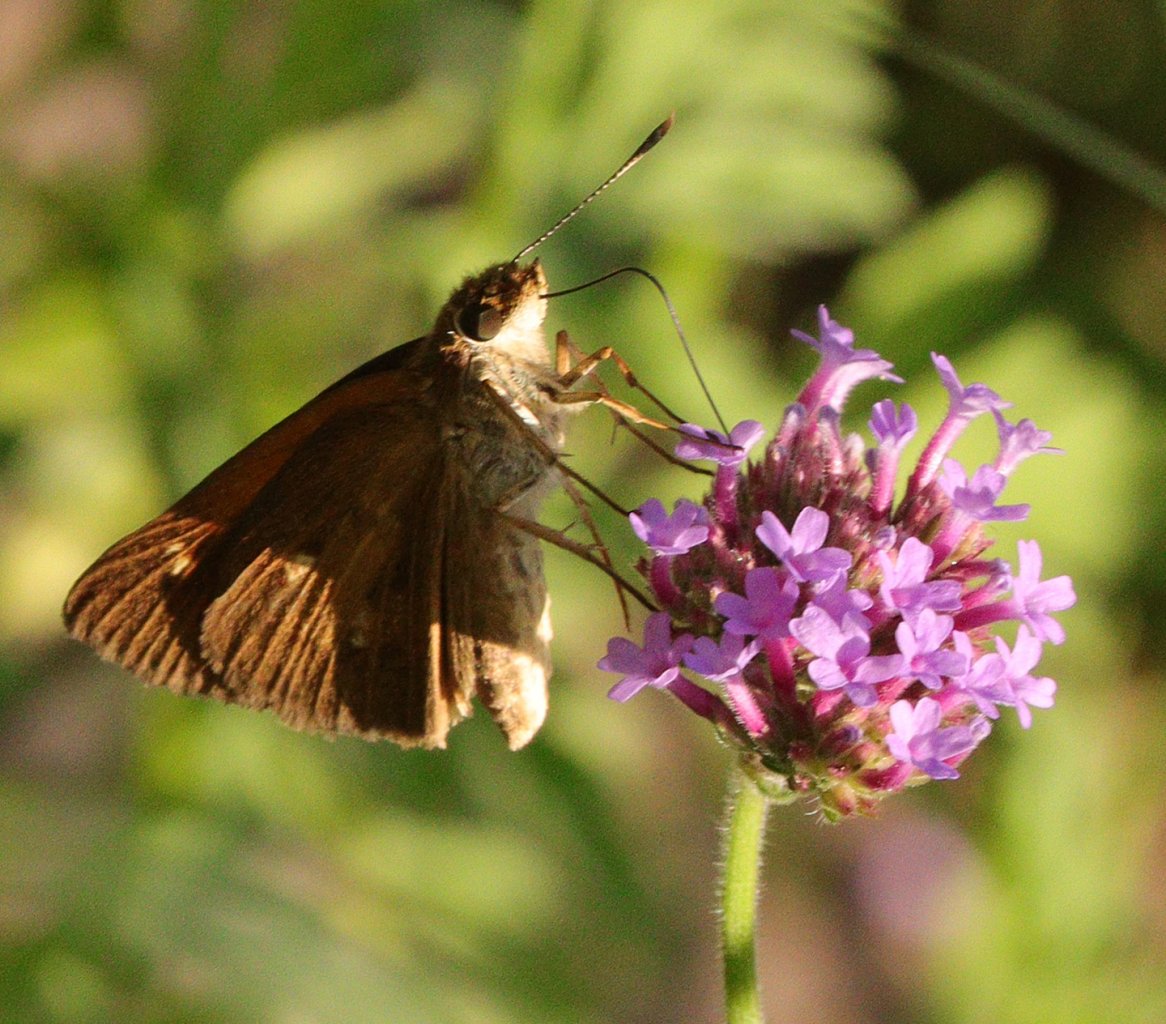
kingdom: Animalia
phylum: Arthropoda
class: Insecta
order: Lepidoptera
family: Hesperiidae
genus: Poanes
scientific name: Poanes viator
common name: Broad-winged Skipper
